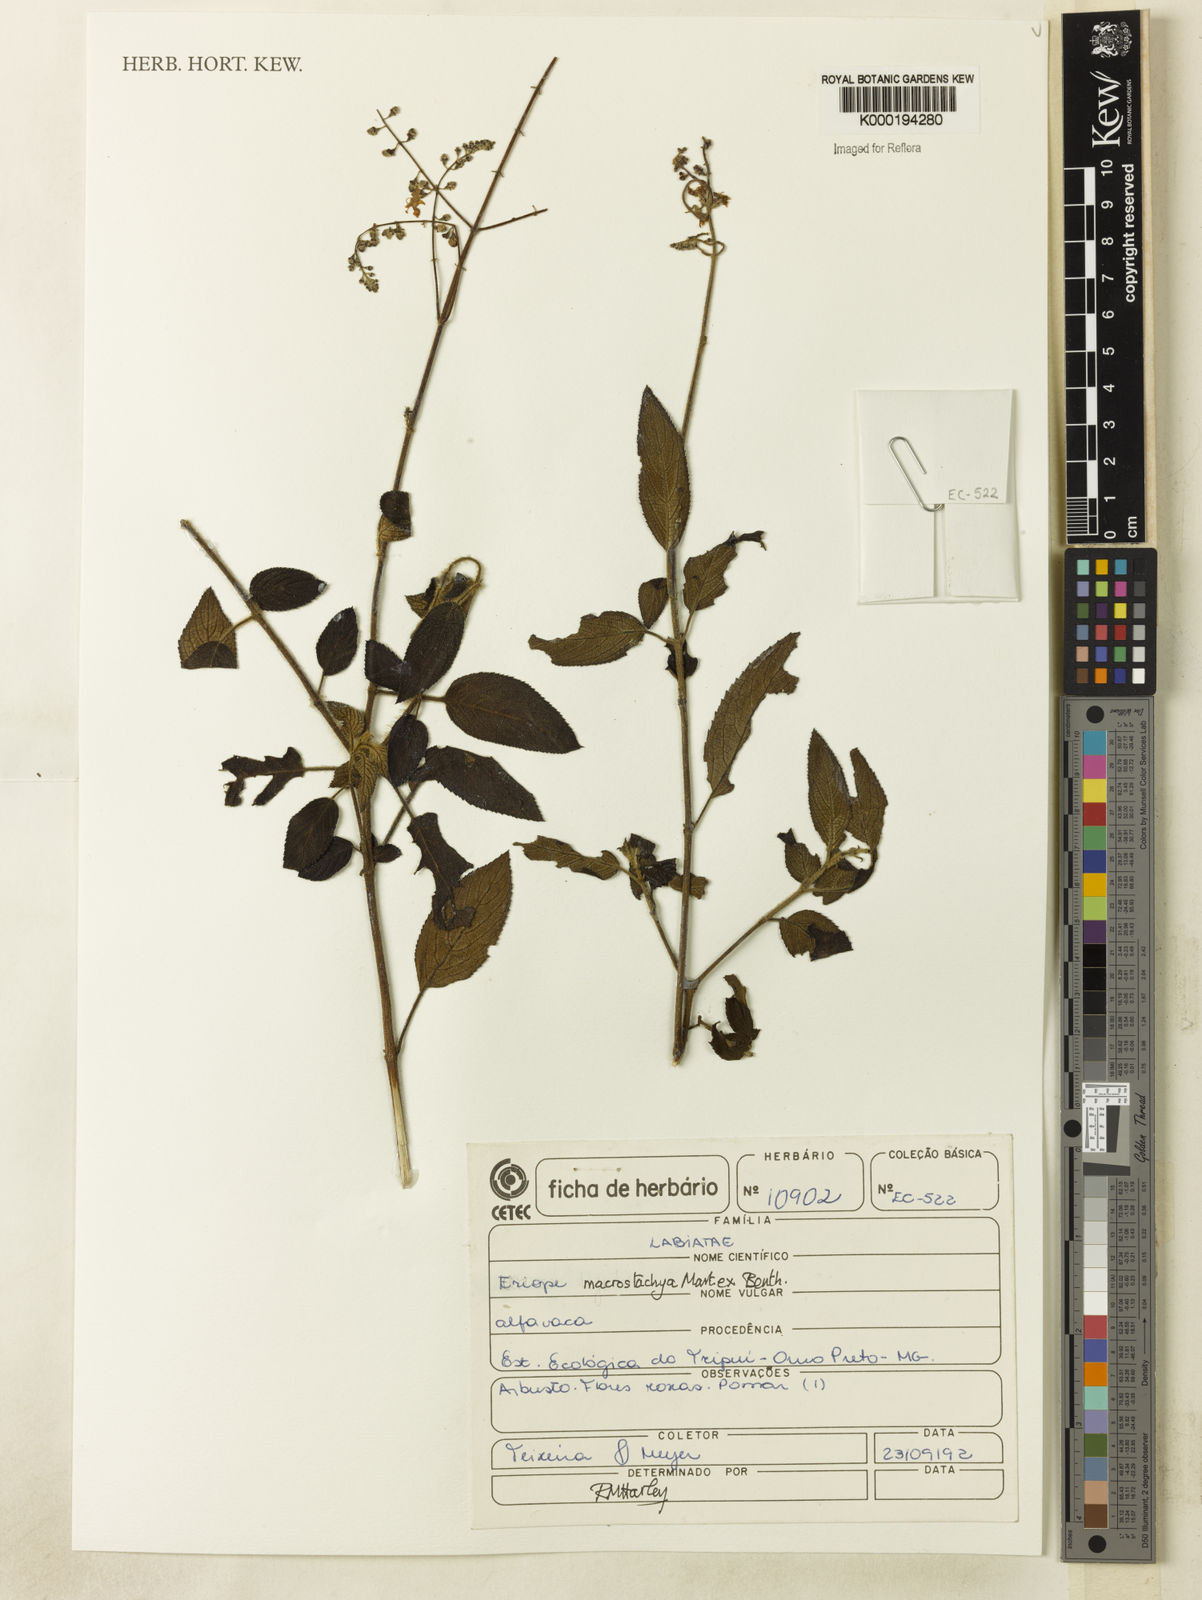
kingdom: Plantae
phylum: Tracheophyta
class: Magnoliopsida
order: Lamiales
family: Lamiaceae
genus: Eriope
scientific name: Eriope macrostachya
